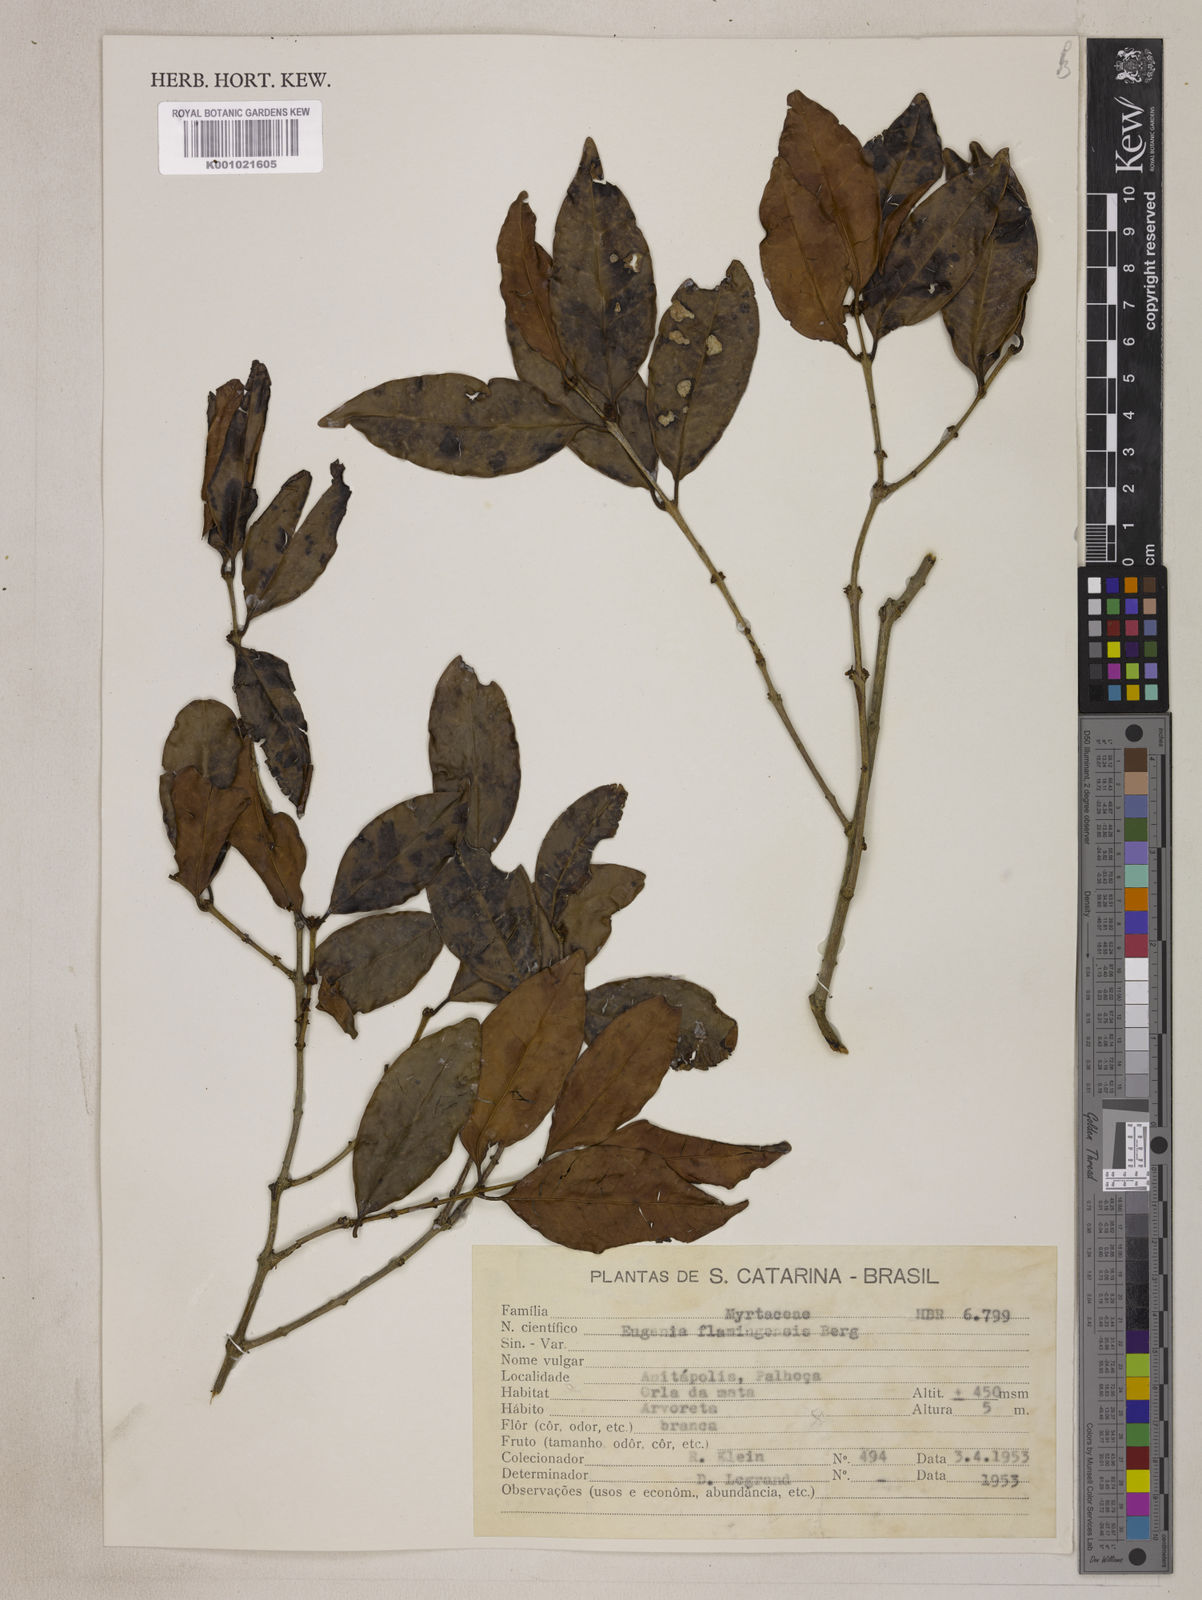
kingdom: Plantae
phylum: Tracheophyta
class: Magnoliopsida
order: Myrtales
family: Myrtaceae
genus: Eugenia
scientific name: Eugenia flamingensis
